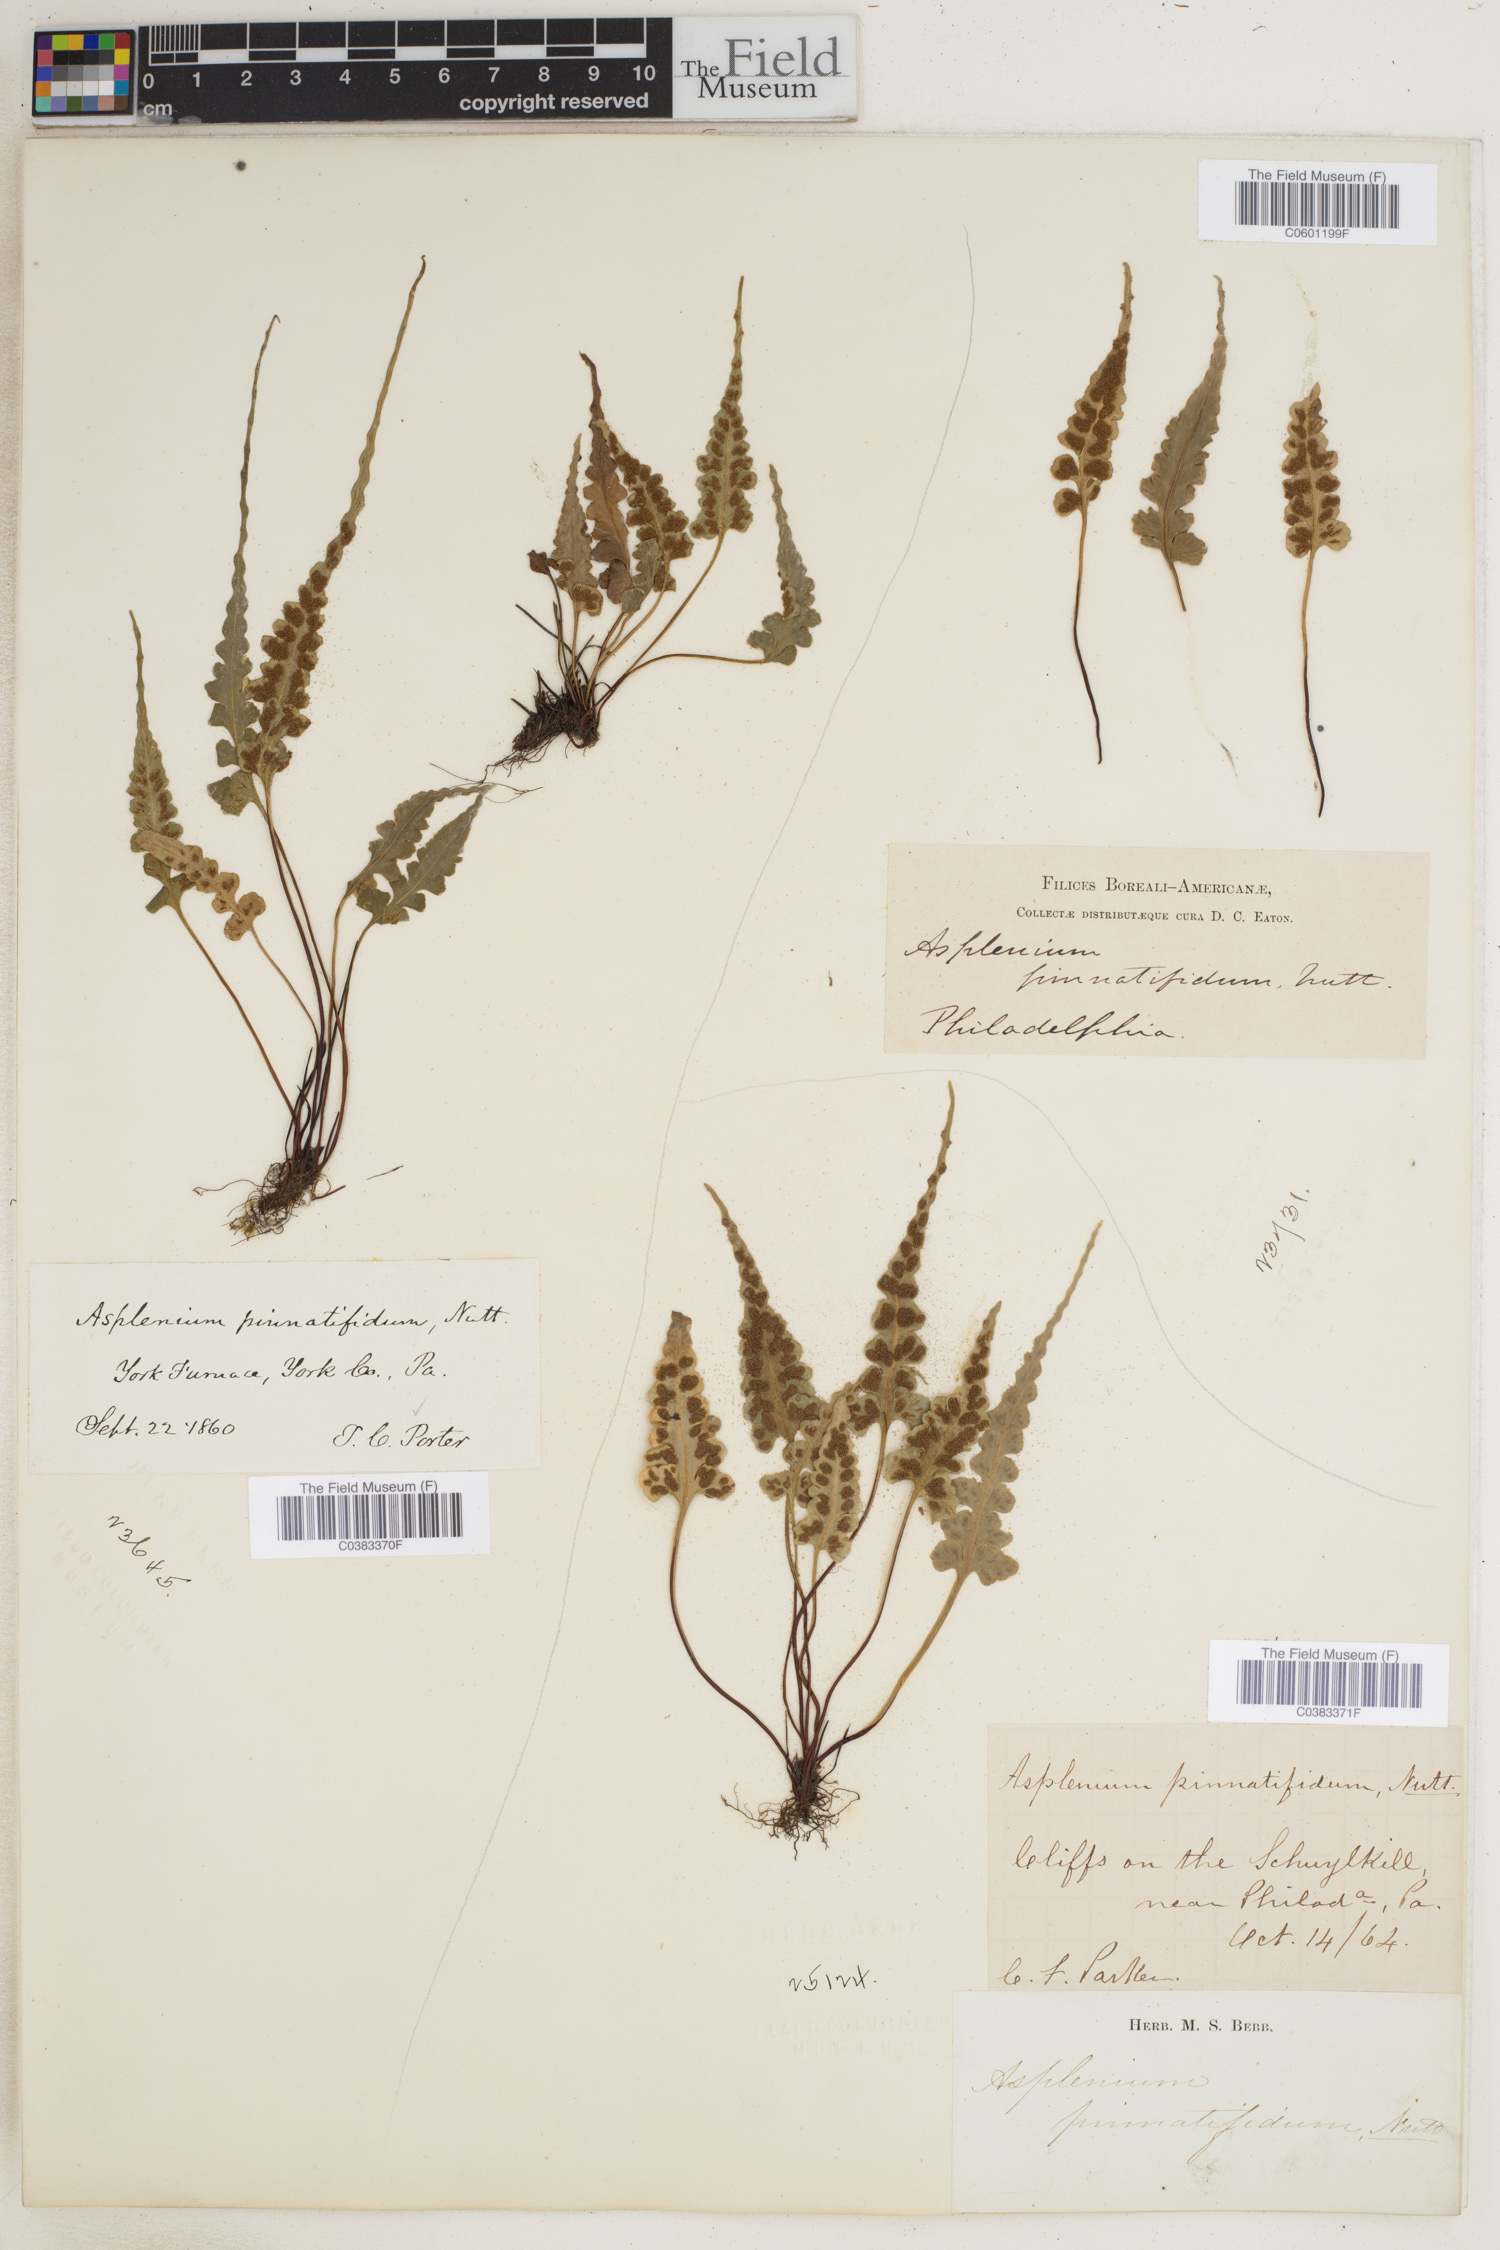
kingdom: Plantae
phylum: Tracheophyta
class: Polypodiopsida
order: Polypodiales
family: Aspleniaceae
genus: Asplenium
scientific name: Asplenium pinnatifidum
